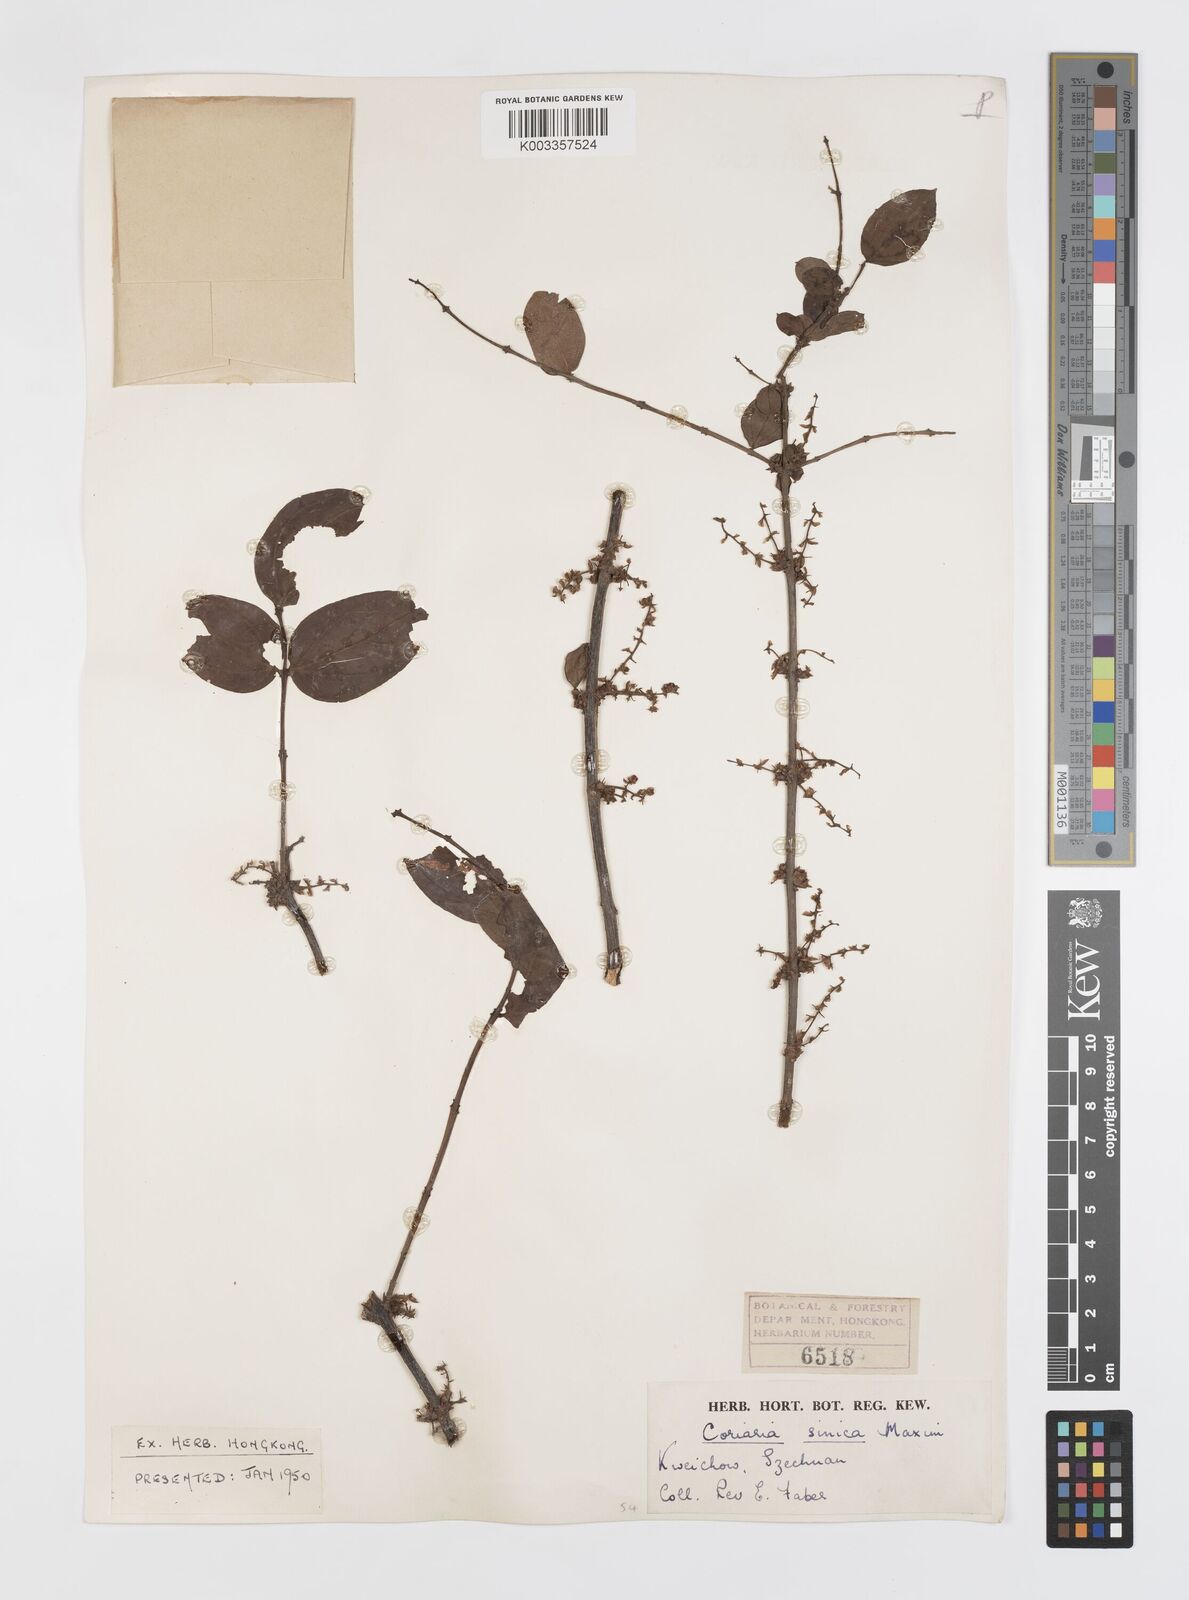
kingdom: Plantae
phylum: Tracheophyta
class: Magnoliopsida
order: Cucurbitales
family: Coriariaceae
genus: Coriaria
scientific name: Coriaria napalensis
